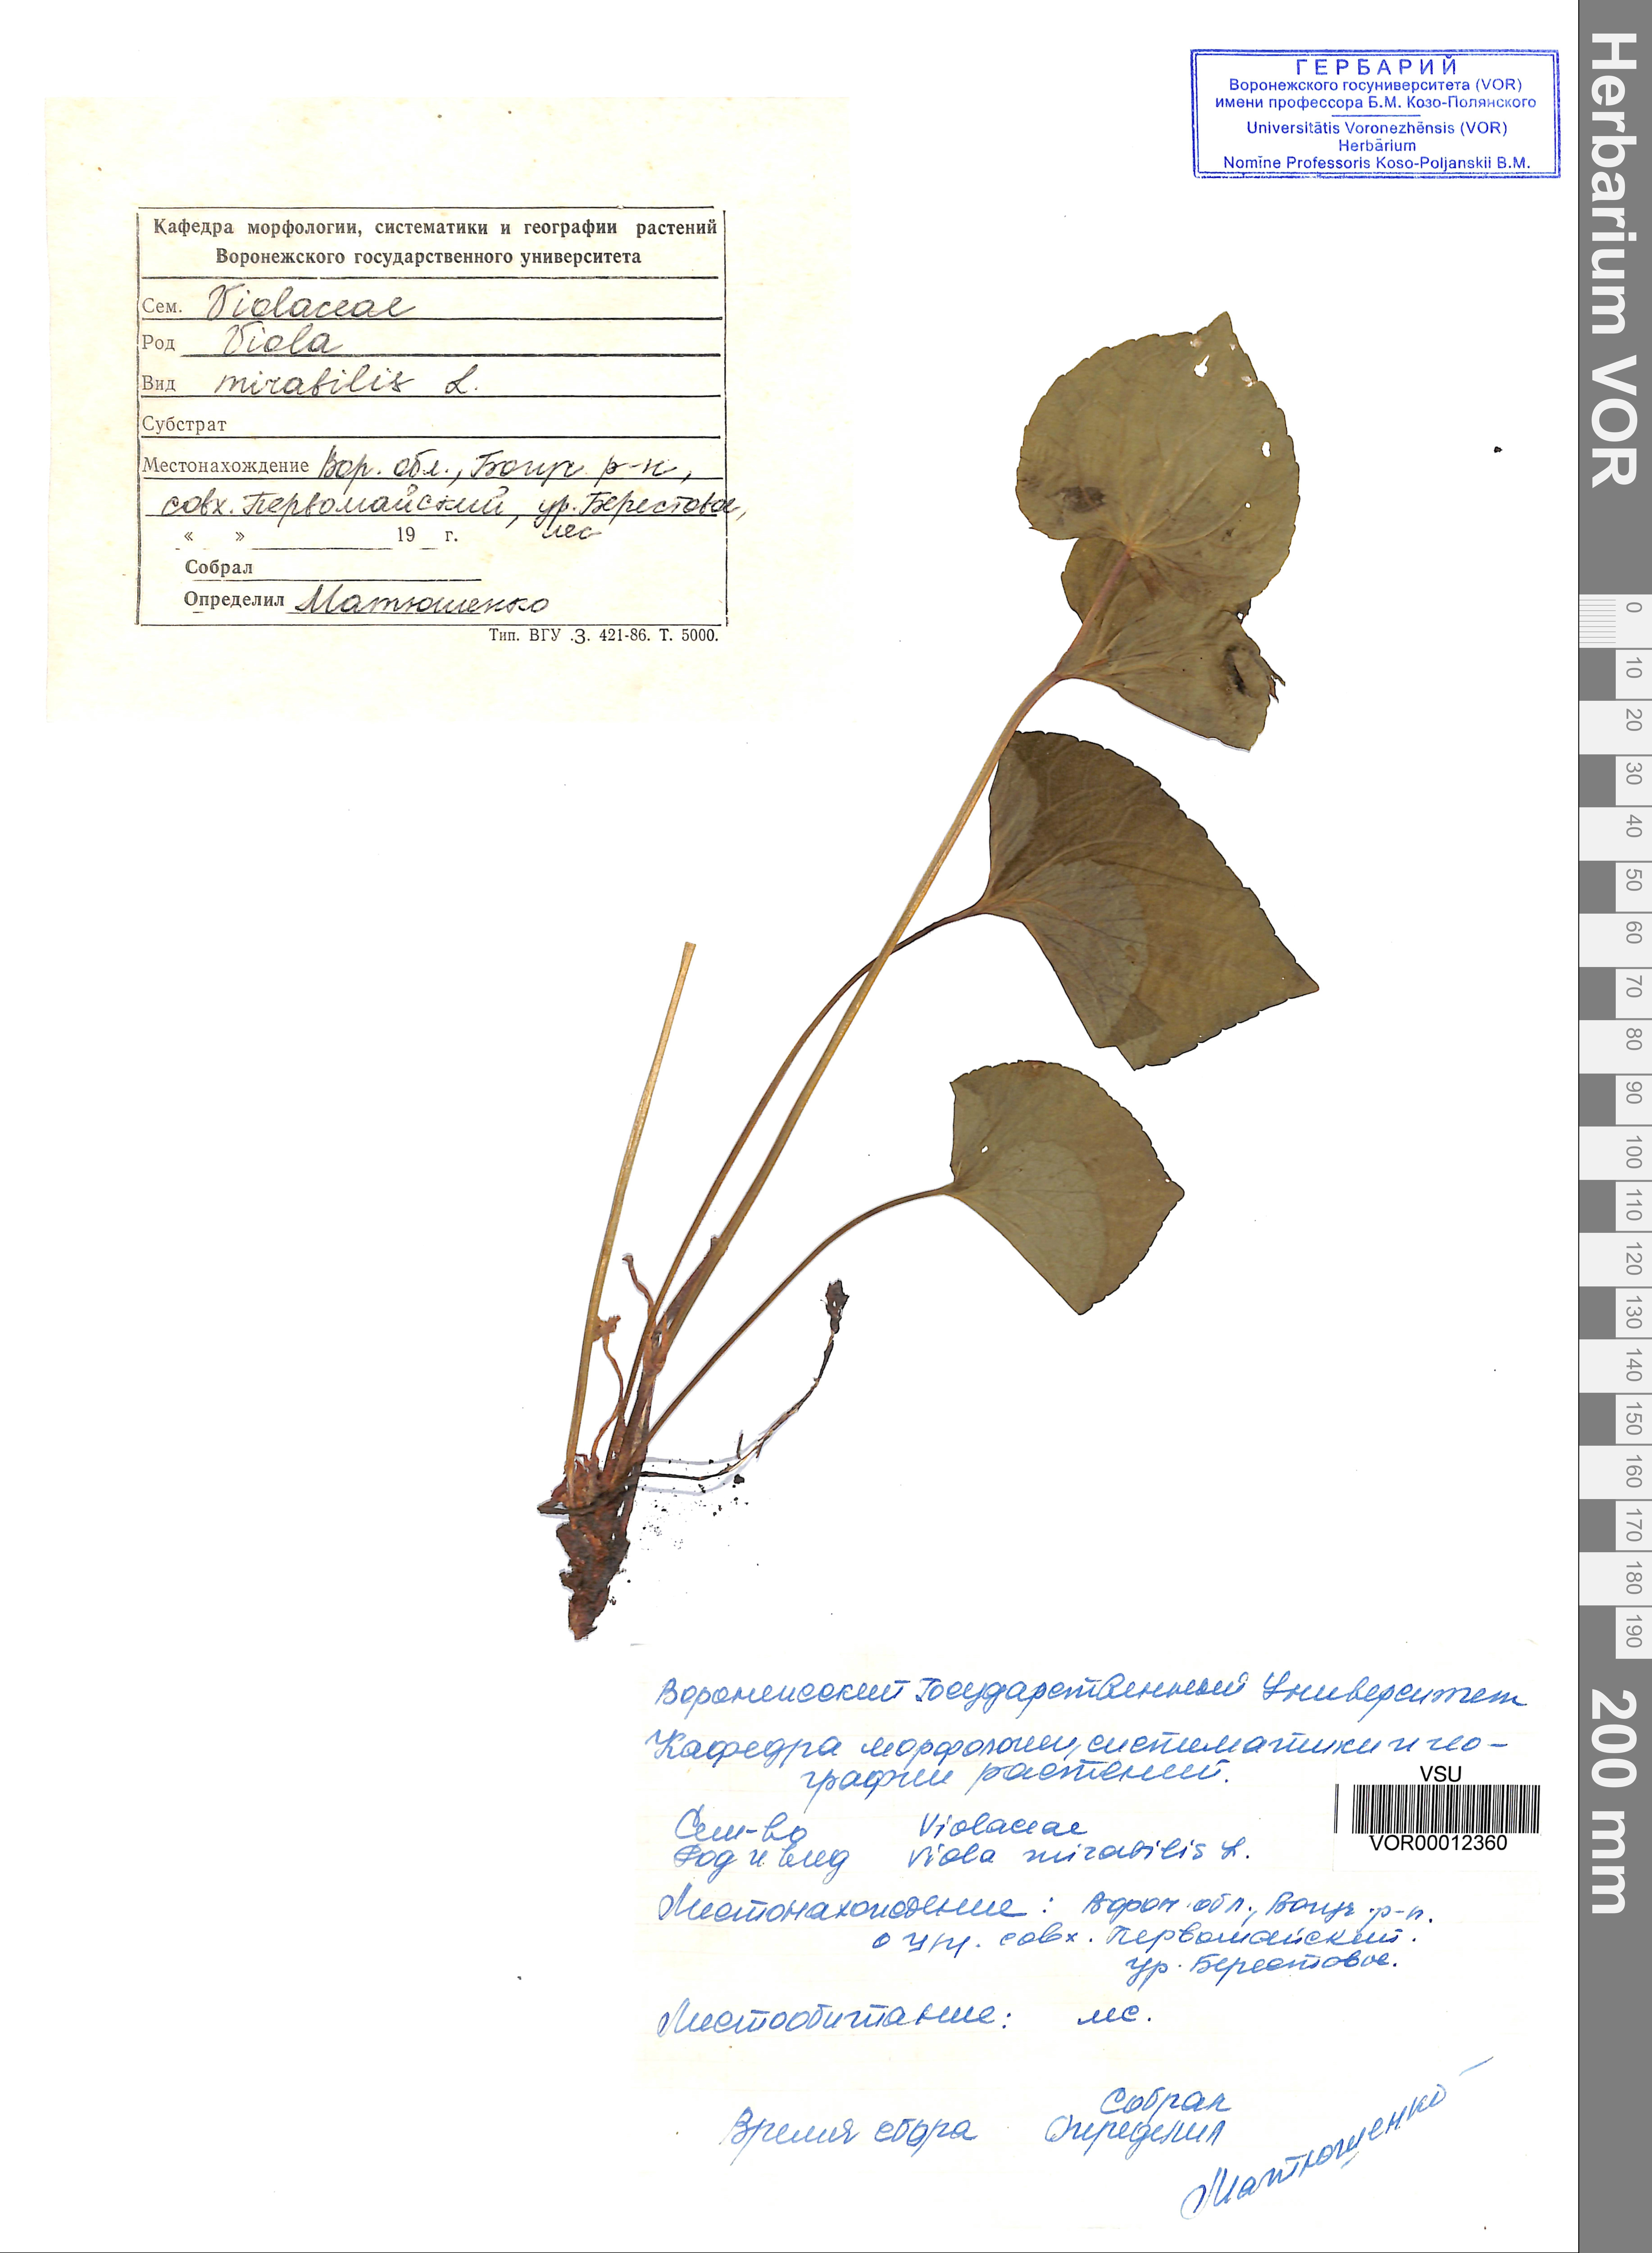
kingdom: Plantae
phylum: Tracheophyta
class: Magnoliopsida
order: Malpighiales
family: Violaceae
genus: Viola
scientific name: Viola mirabilis
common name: Wonder violet
